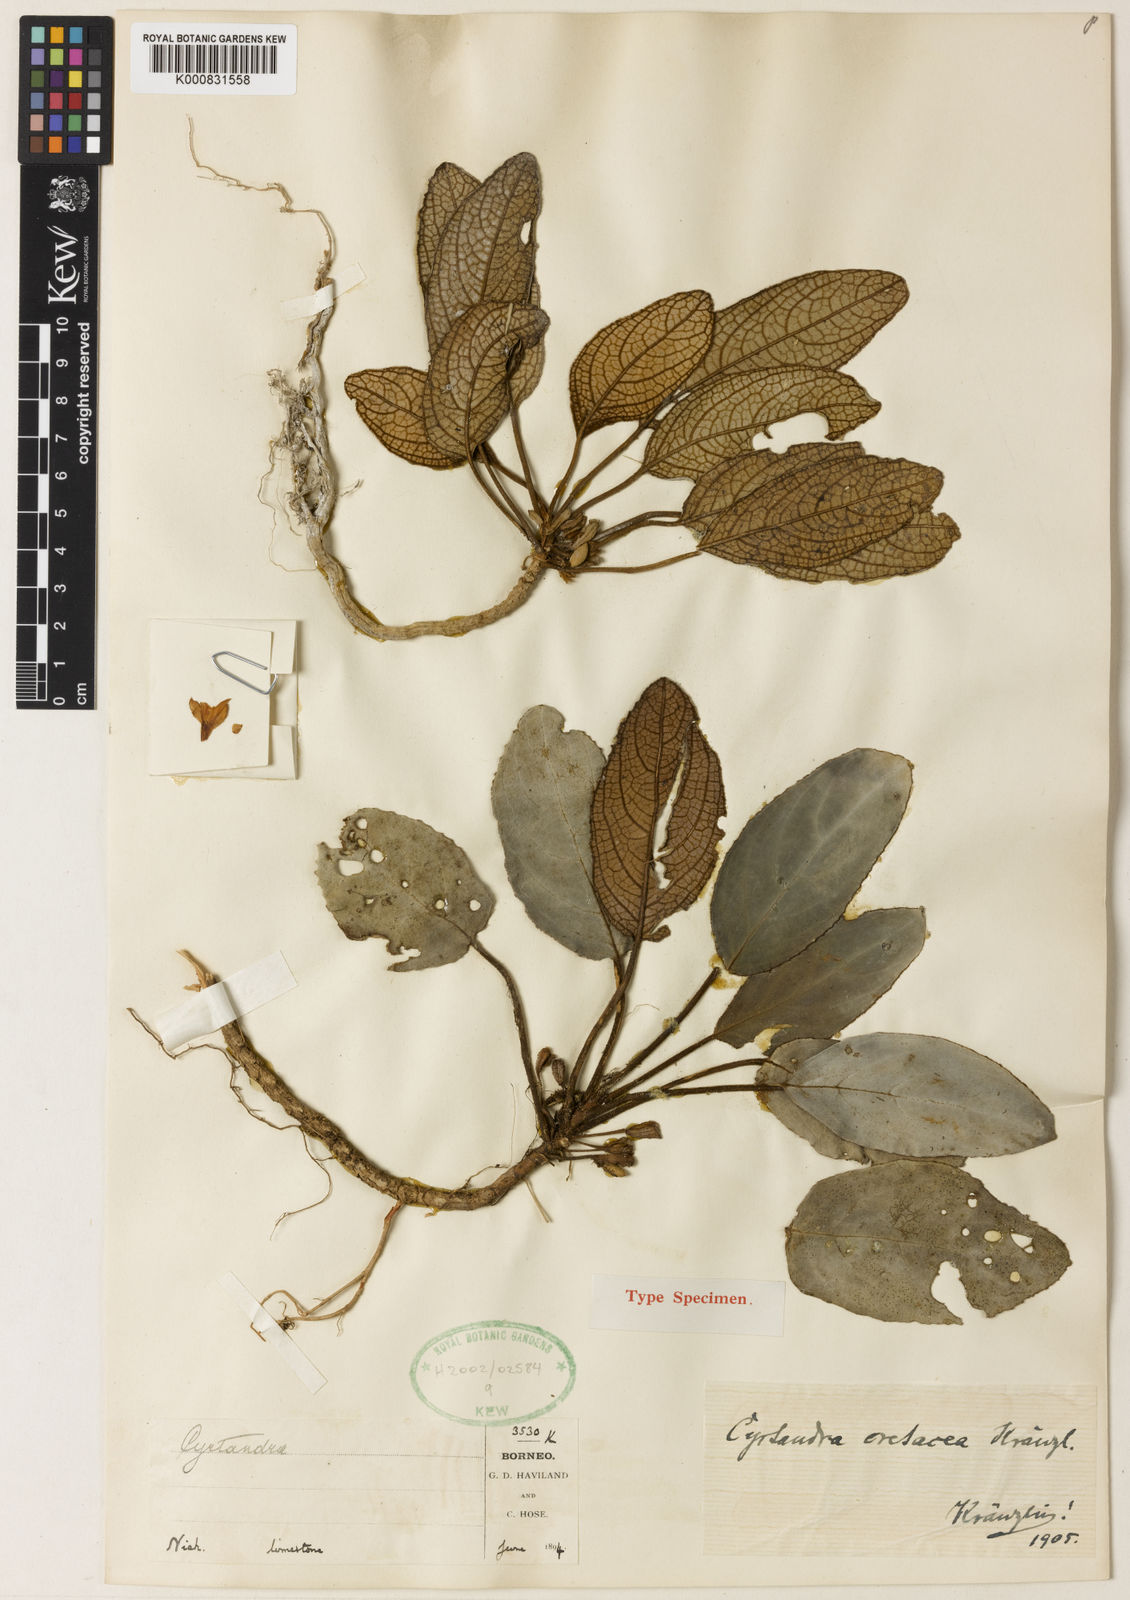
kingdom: Plantae
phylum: Tracheophyta
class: Magnoliopsida
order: Lamiales
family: Gesneriaceae
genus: Cyrtandra
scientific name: Cyrtandra cretacea
